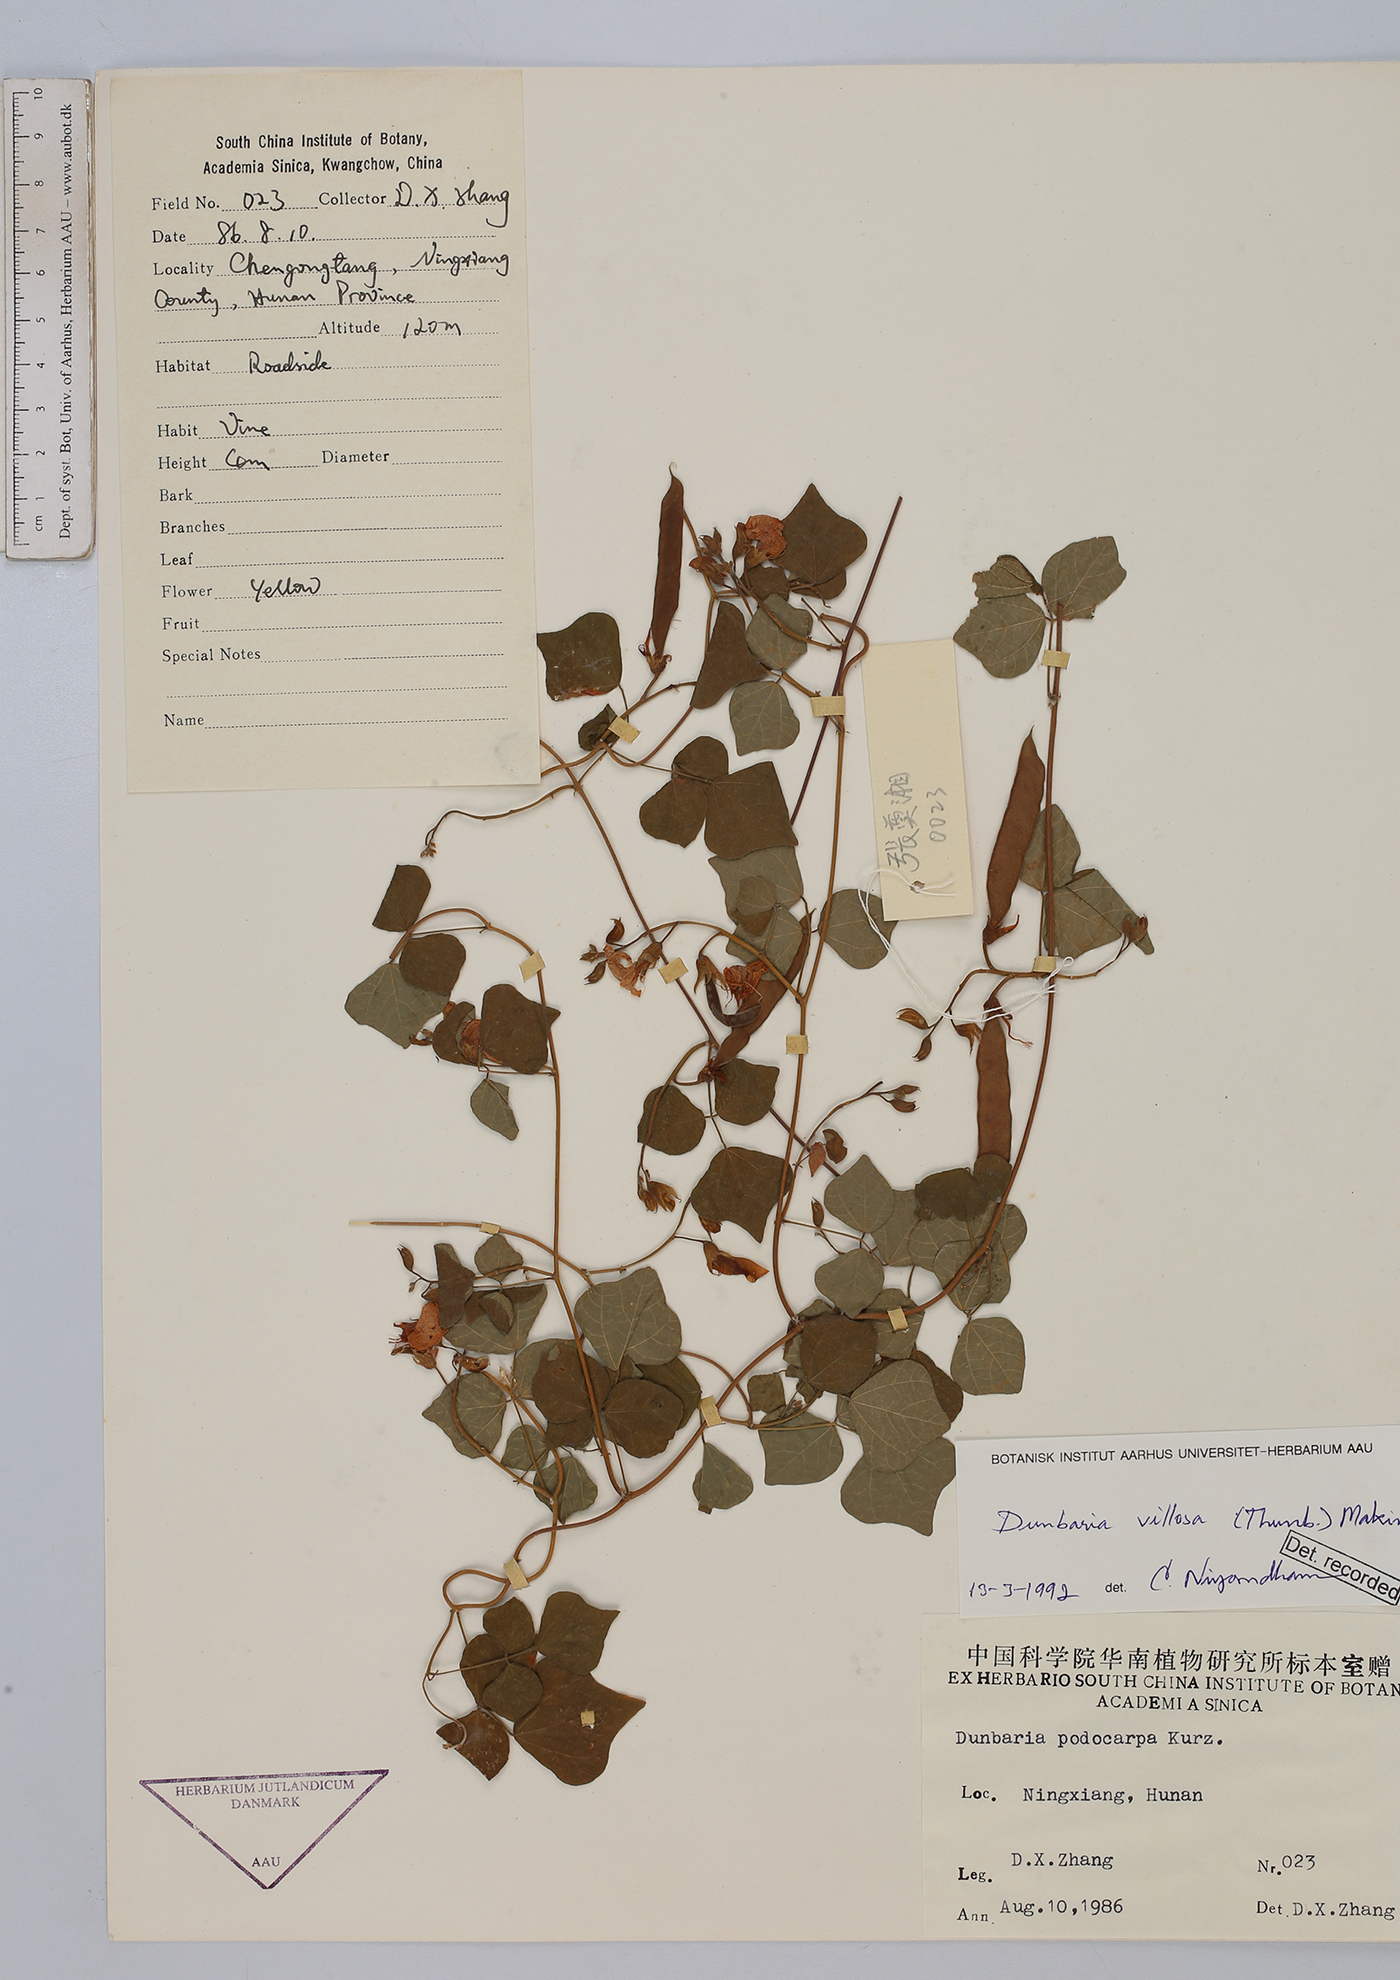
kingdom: Plantae
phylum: Tracheophyta
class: Magnoliopsida
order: Fabales
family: Fabaceae
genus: Dunbaria
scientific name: Dunbaria villosa
